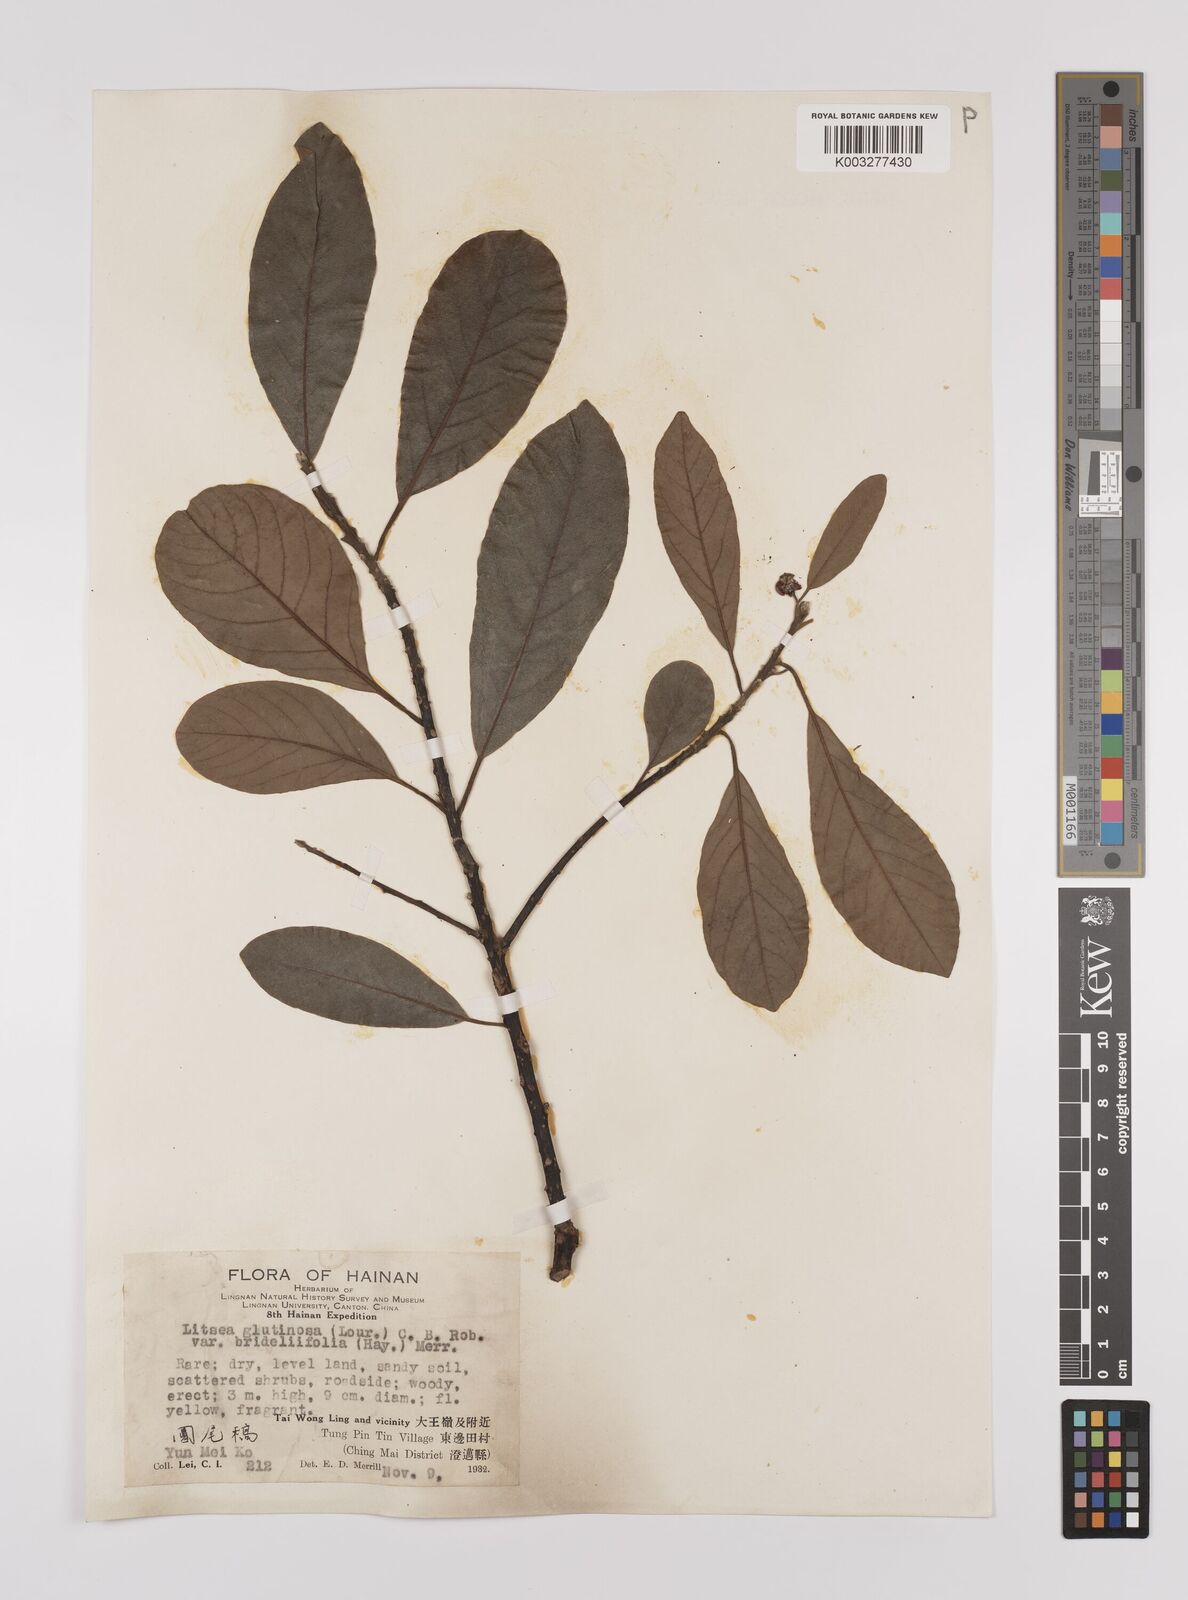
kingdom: Plantae
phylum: Tracheophyta
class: Magnoliopsida
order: Laurales
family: Lauraceae
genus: Litsea
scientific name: Litsea glutinosa
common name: Indian-laurel
